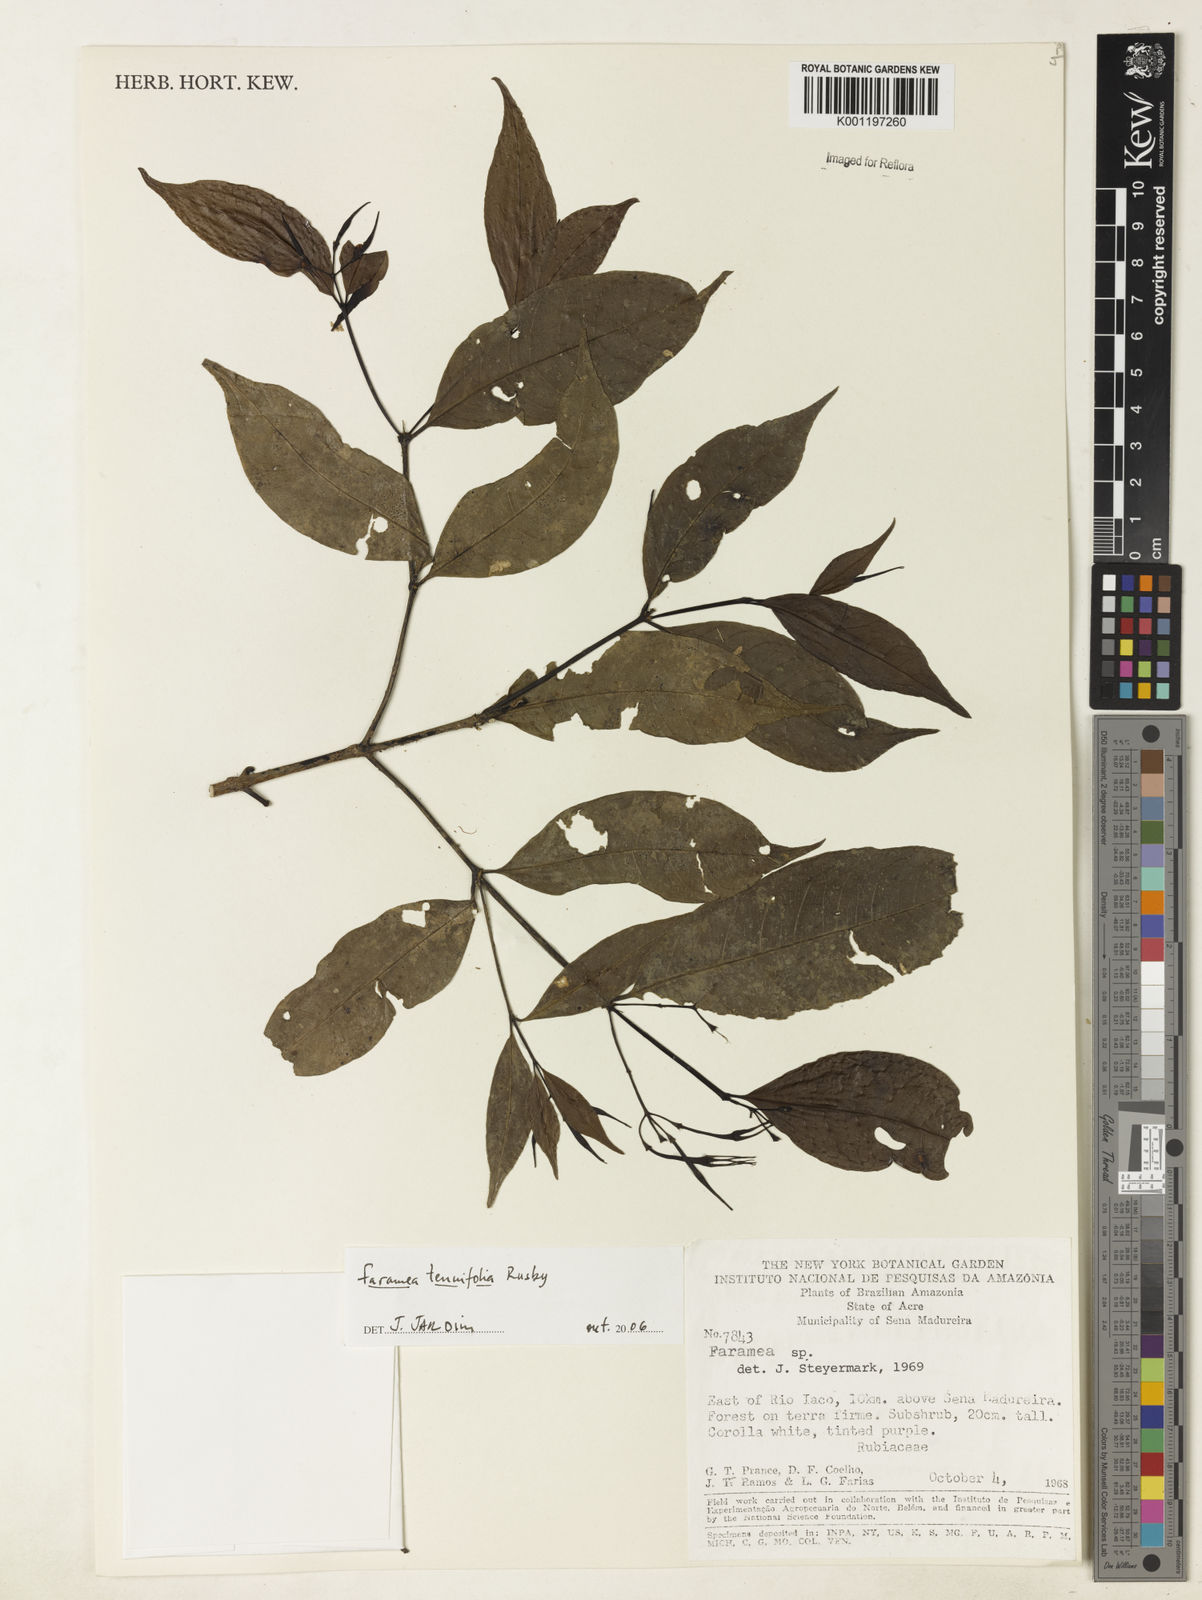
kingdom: Plantae
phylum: Tracheophyta
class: Magnoliopsida
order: Gentianales
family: Rubiaceae
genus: Faramea
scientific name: Faramea
